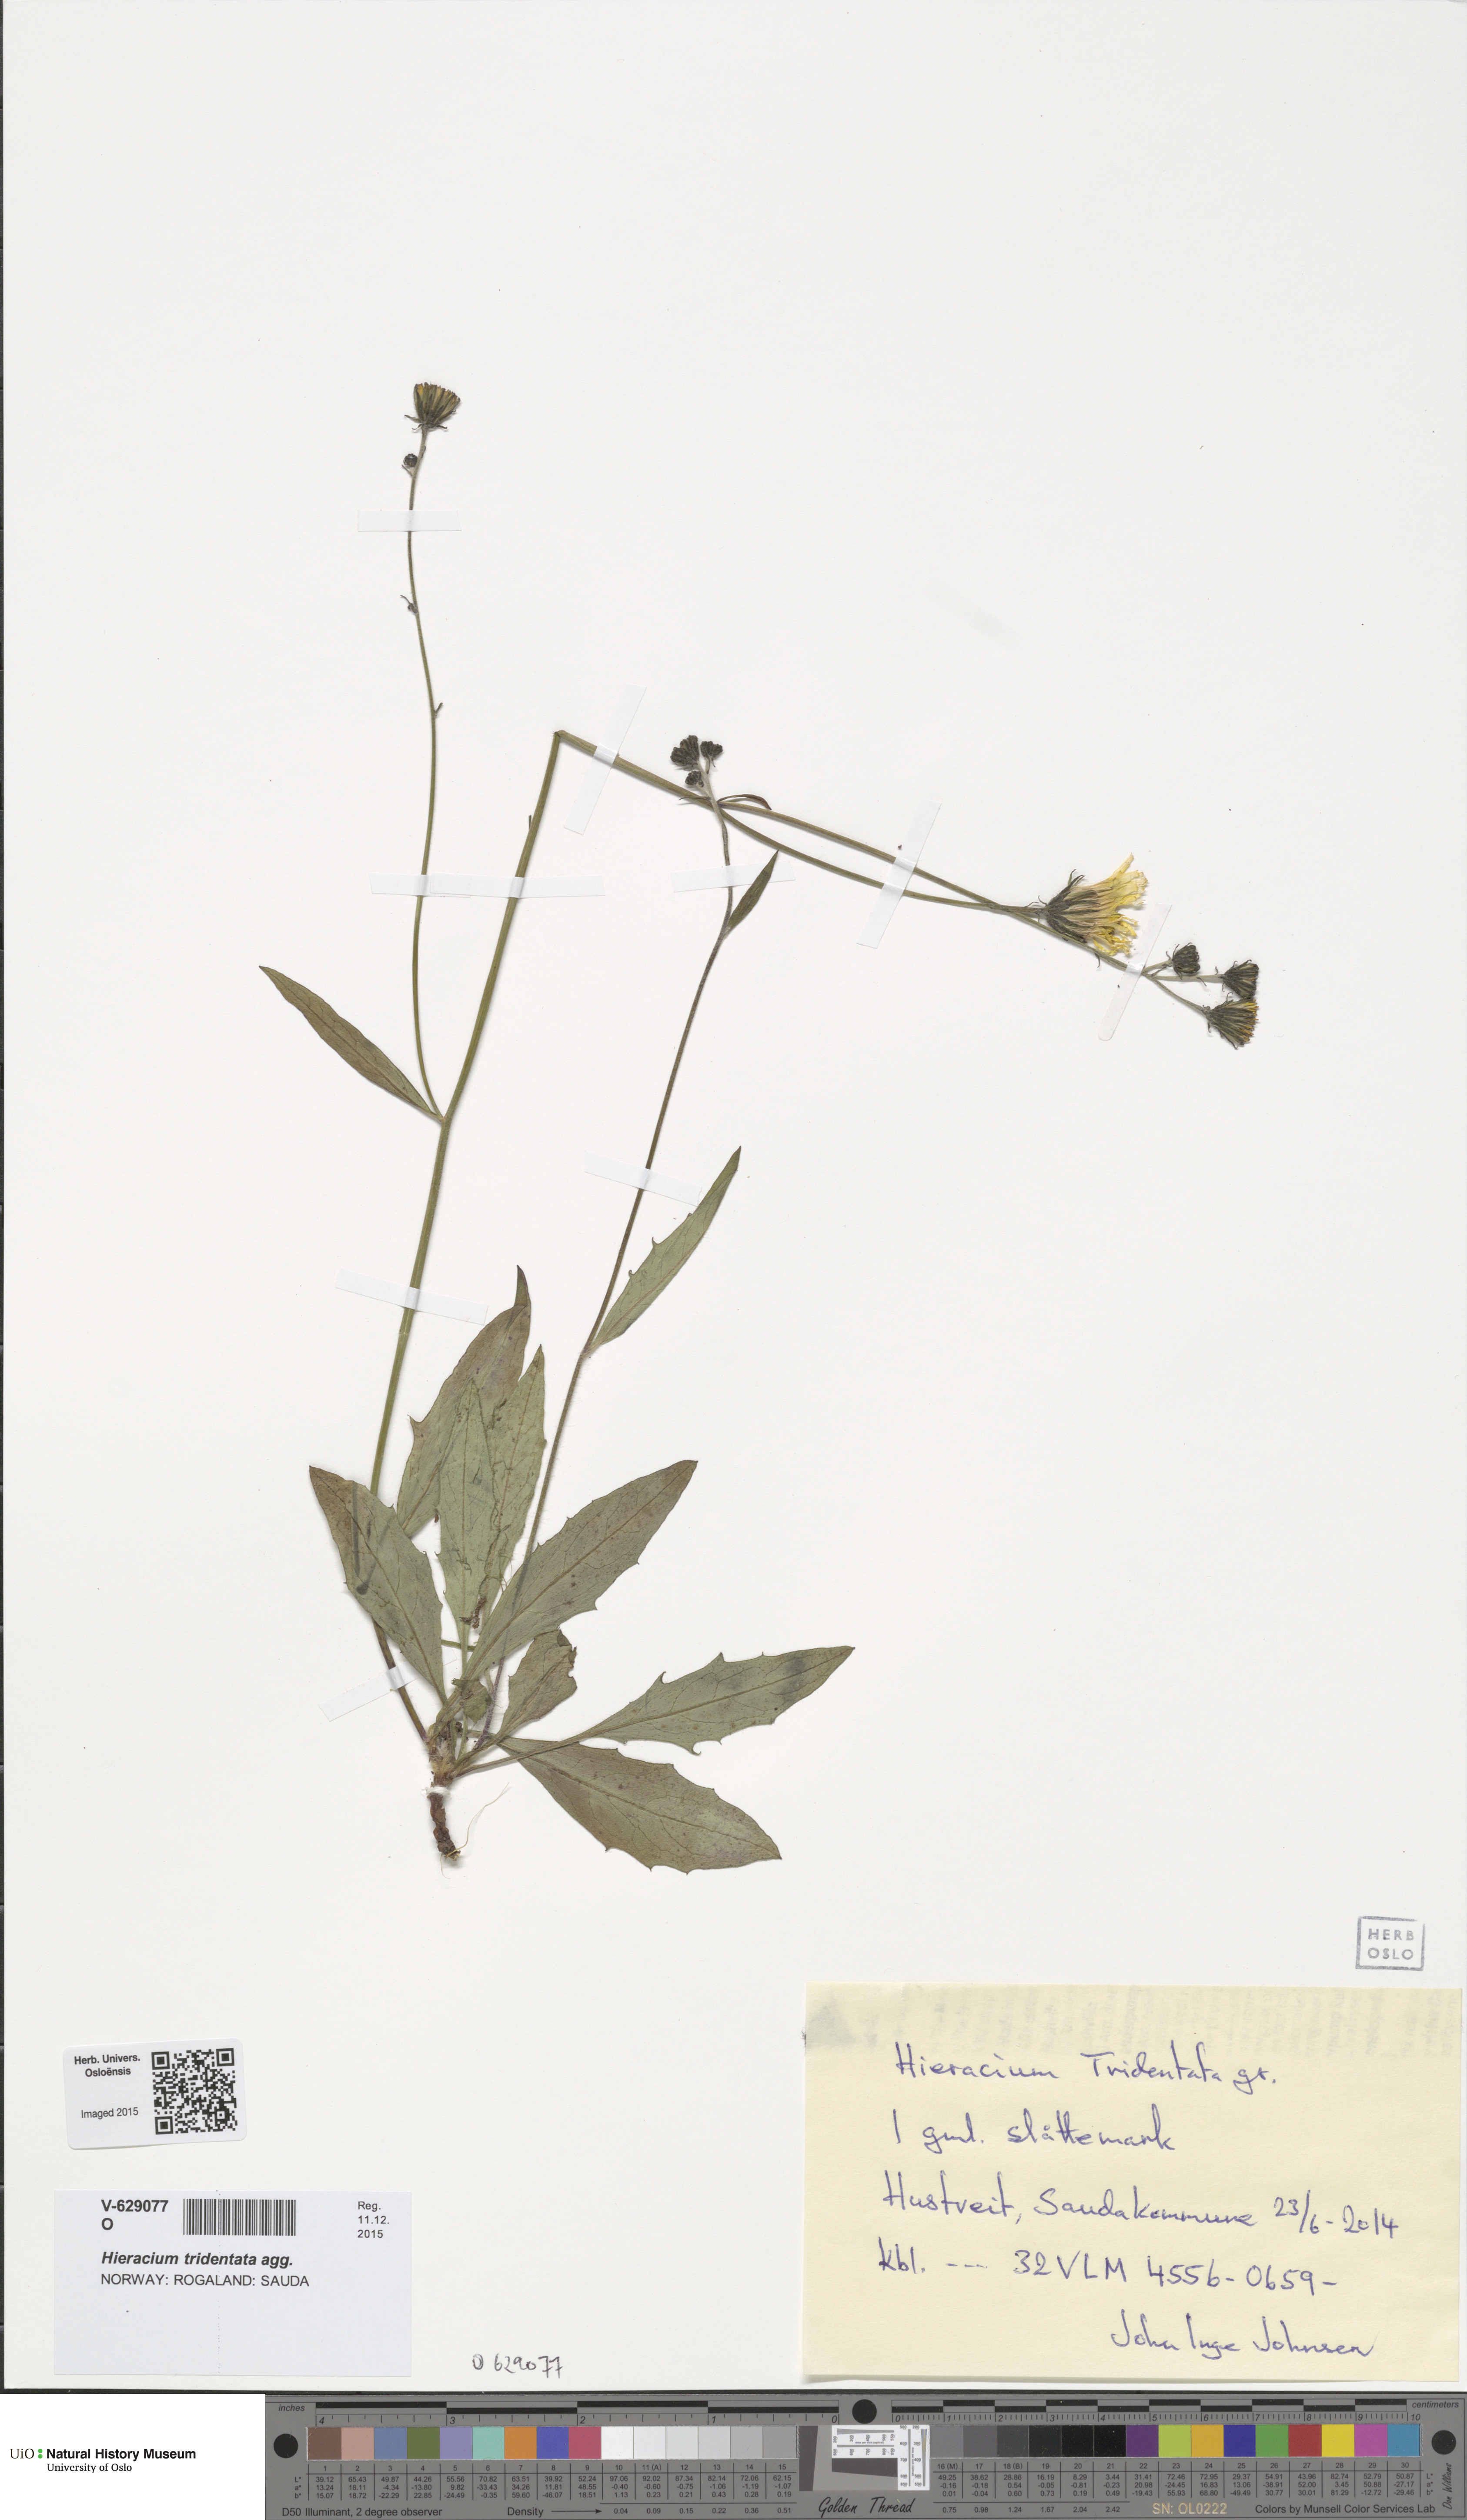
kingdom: Plantae
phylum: Tracheophyta
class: Magnoliopsida
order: Asterales
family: Asteraceae
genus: Hieracium
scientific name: Hieracium tridentatum
